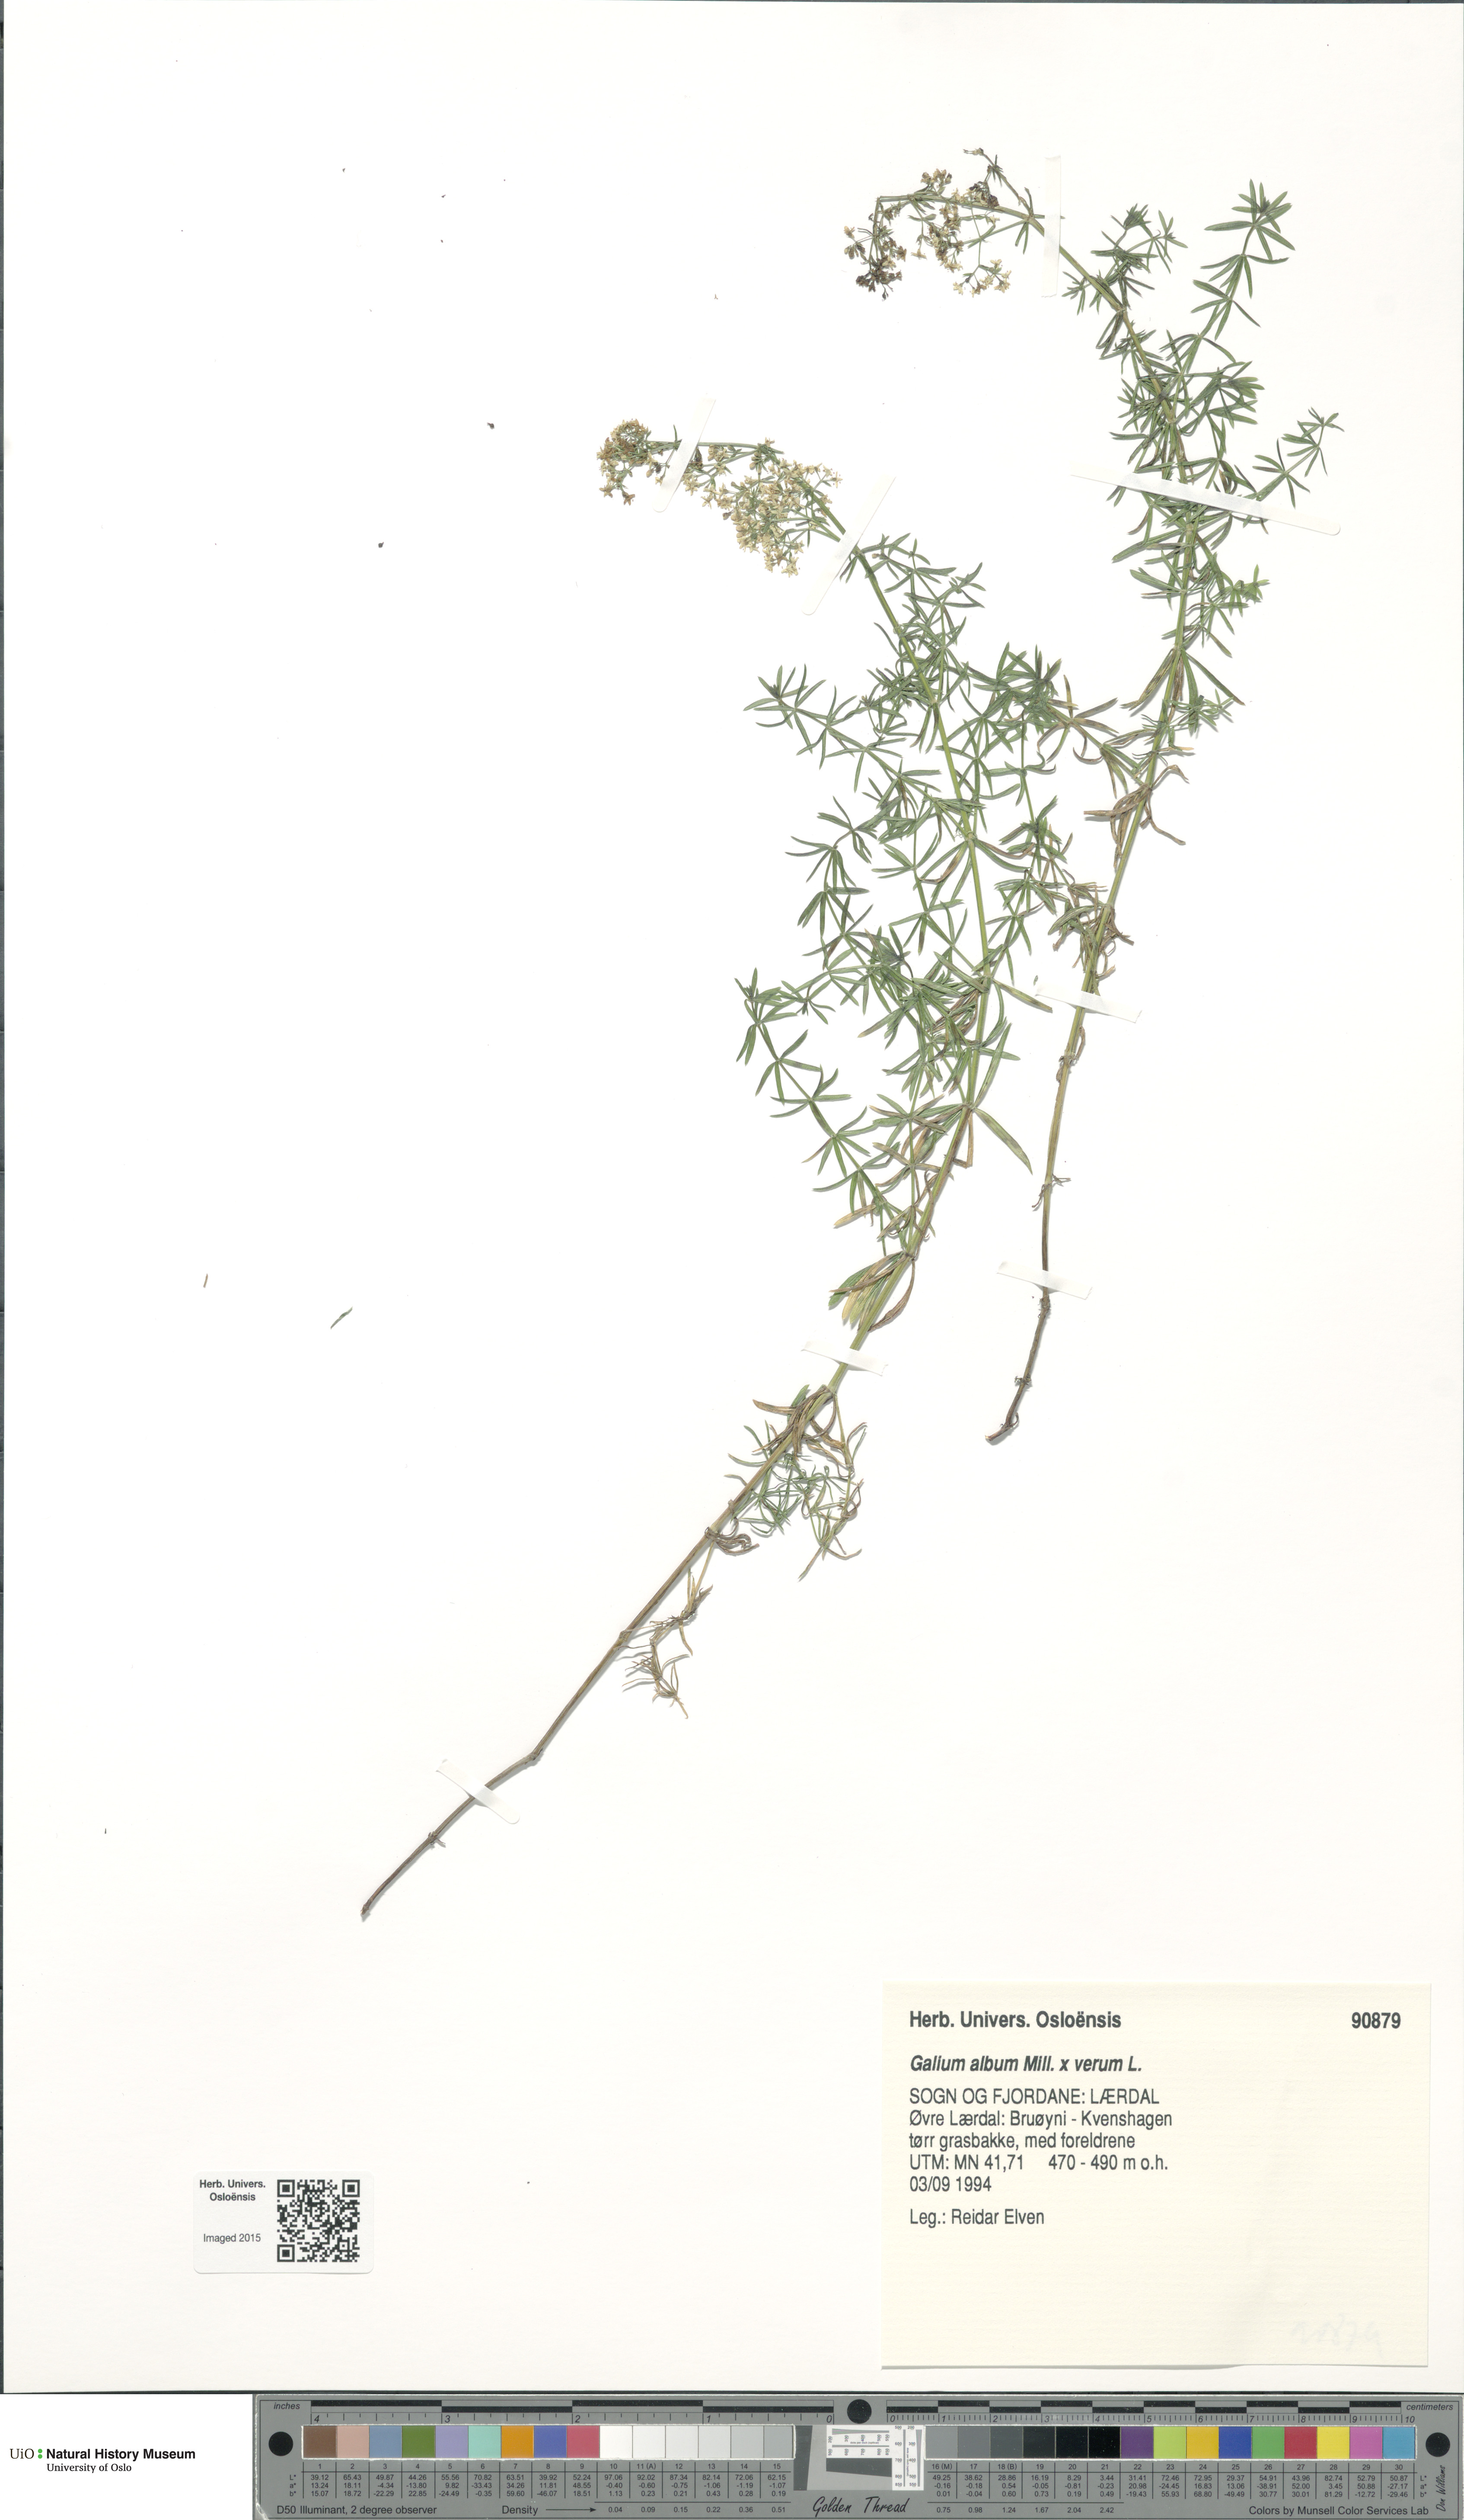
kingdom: Plantae
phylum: Tracheophyta
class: Magnoliopsida
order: Gentianales
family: Rubiaceae
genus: Galium
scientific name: Galium
